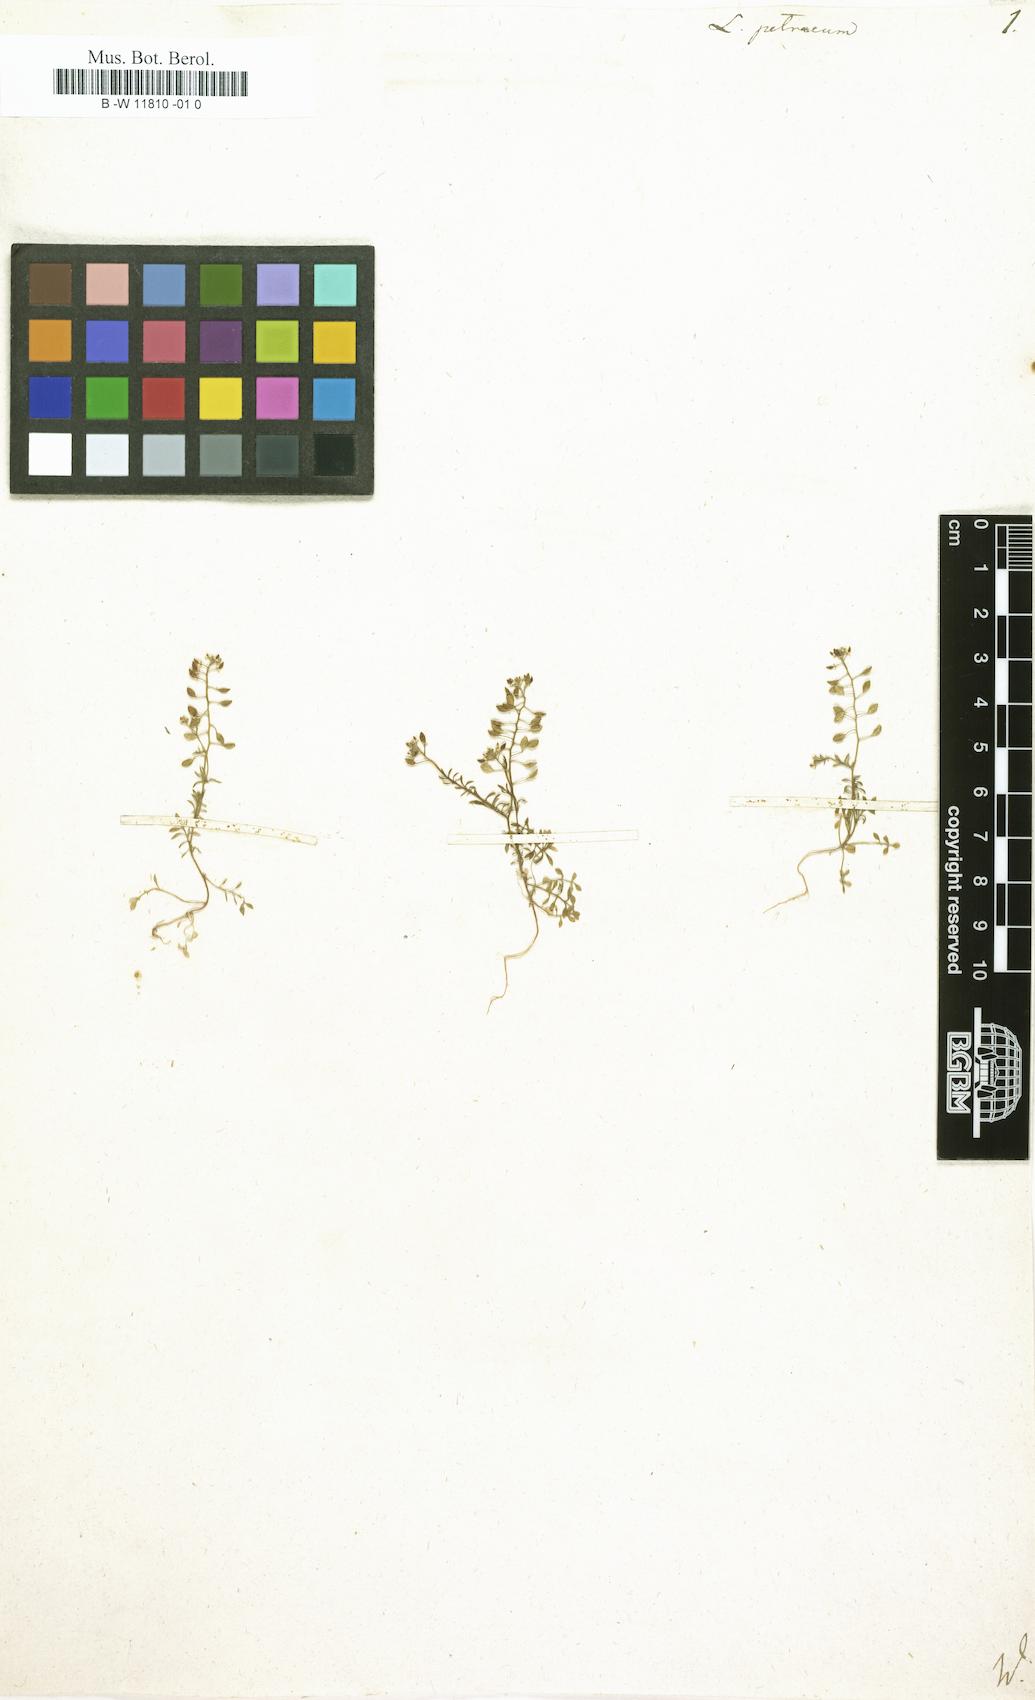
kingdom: Plantae
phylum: Tracheophyta
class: Magnoliopsida
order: Brassicales
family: Brassicaceae
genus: Hornungia
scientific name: Hornungia
